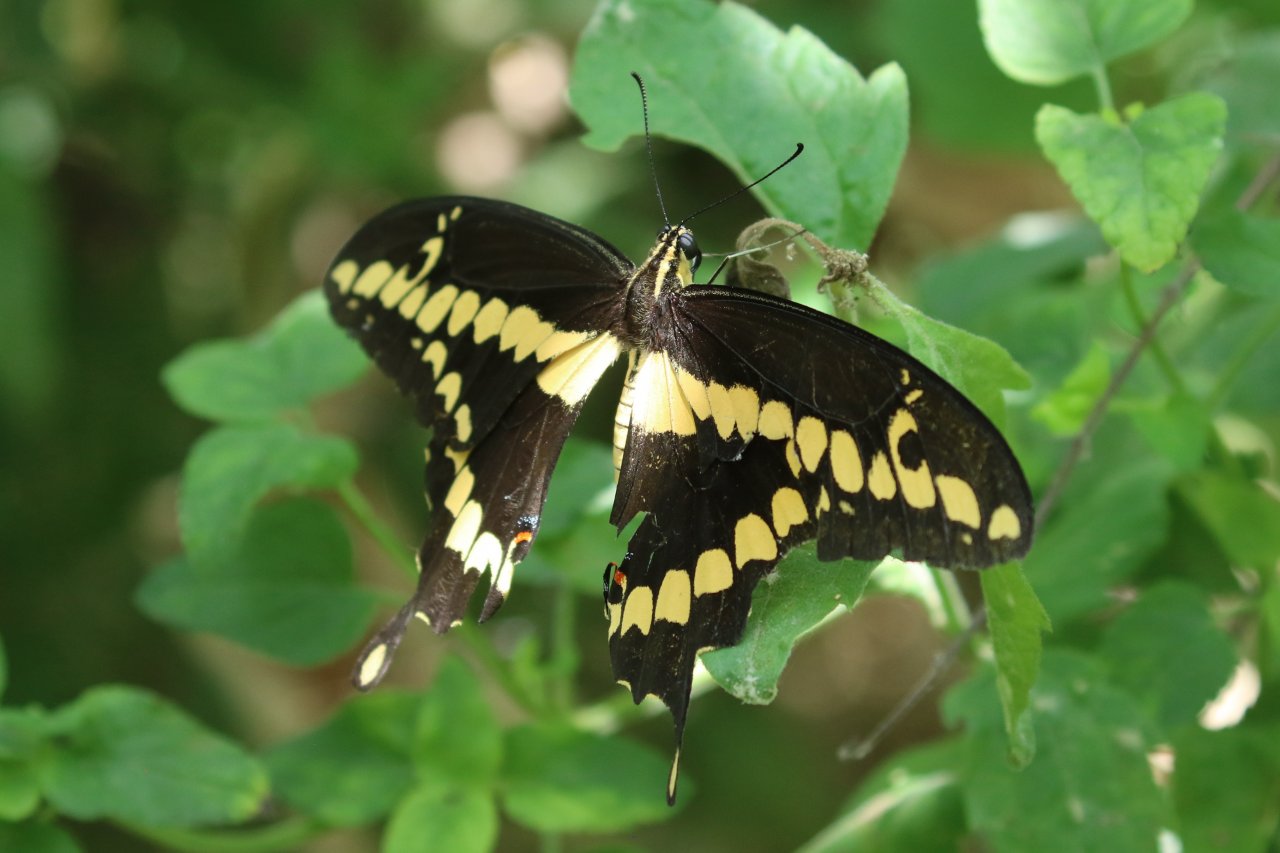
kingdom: Animalia
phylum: Arthropoda
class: Insecta
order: Lepidoptera
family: Papilionidae
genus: Papilio
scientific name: Papilio rumiko
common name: Western Giant Swallowtail
